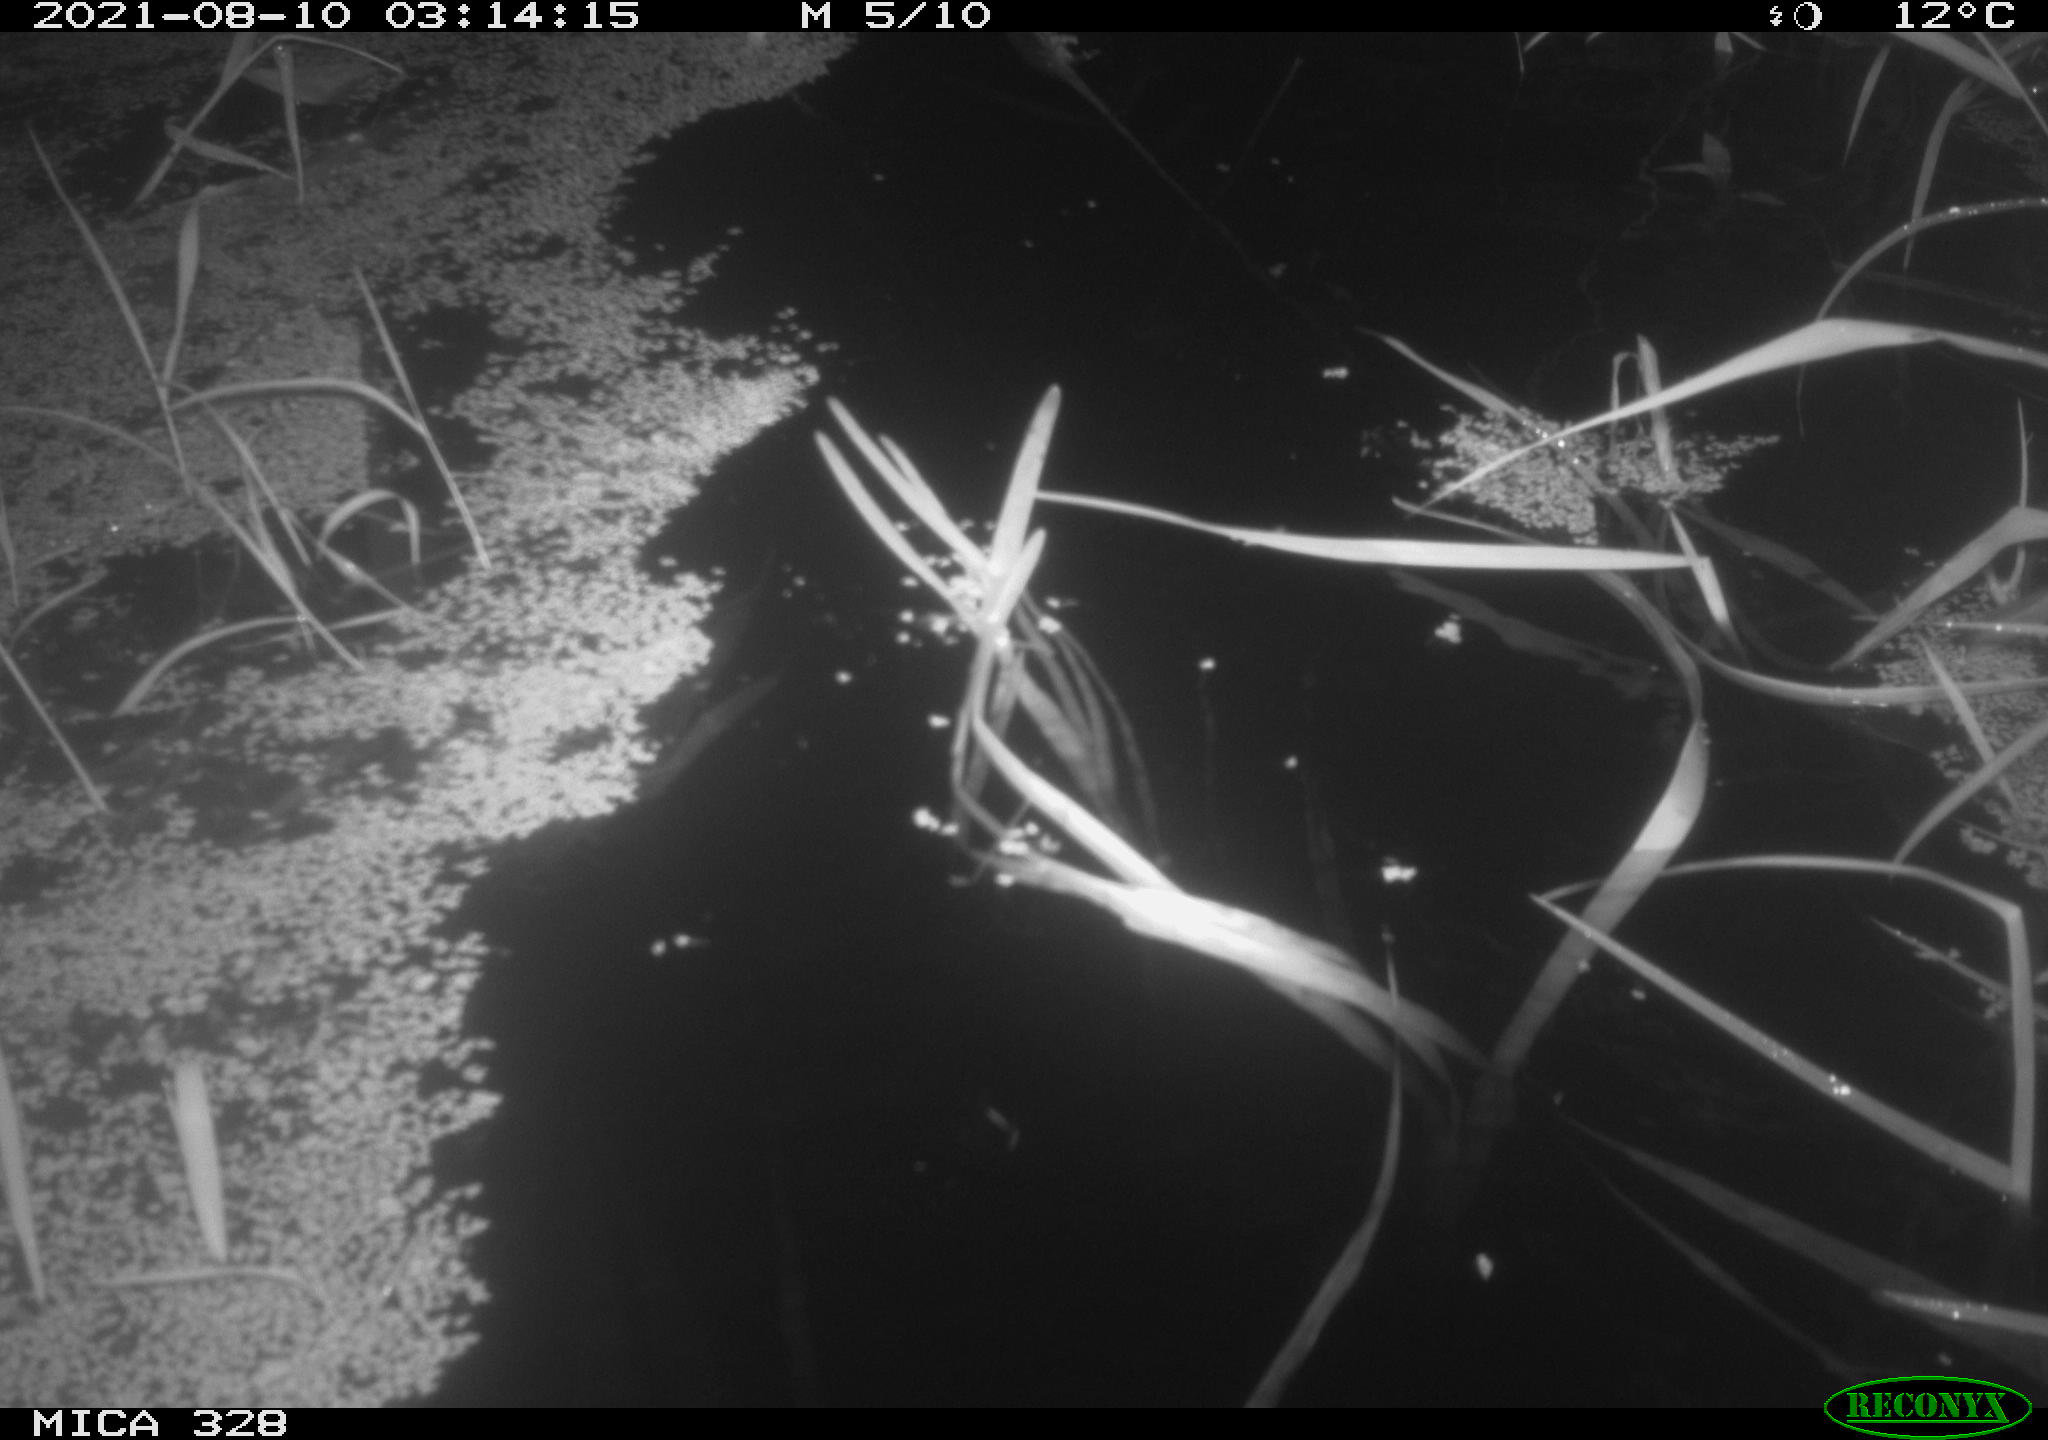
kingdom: Animalia
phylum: Chordata
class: Mammalia
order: Rodentia
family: Cricetidae
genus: Ondatra
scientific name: Ondatra zibethicus
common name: Muskrat
